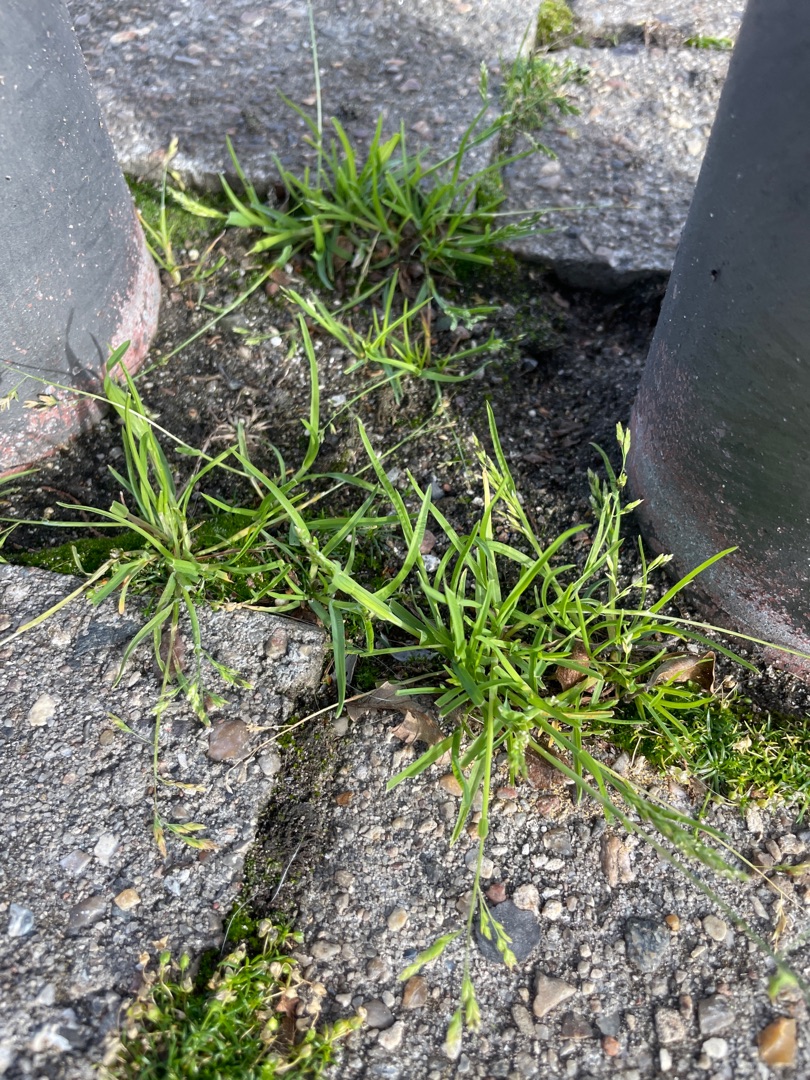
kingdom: Plantae
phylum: Tracheophyta
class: Liliopsida
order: Poales
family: Poaceae
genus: Poa
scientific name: Poa annua
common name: Enårig rapgræs
